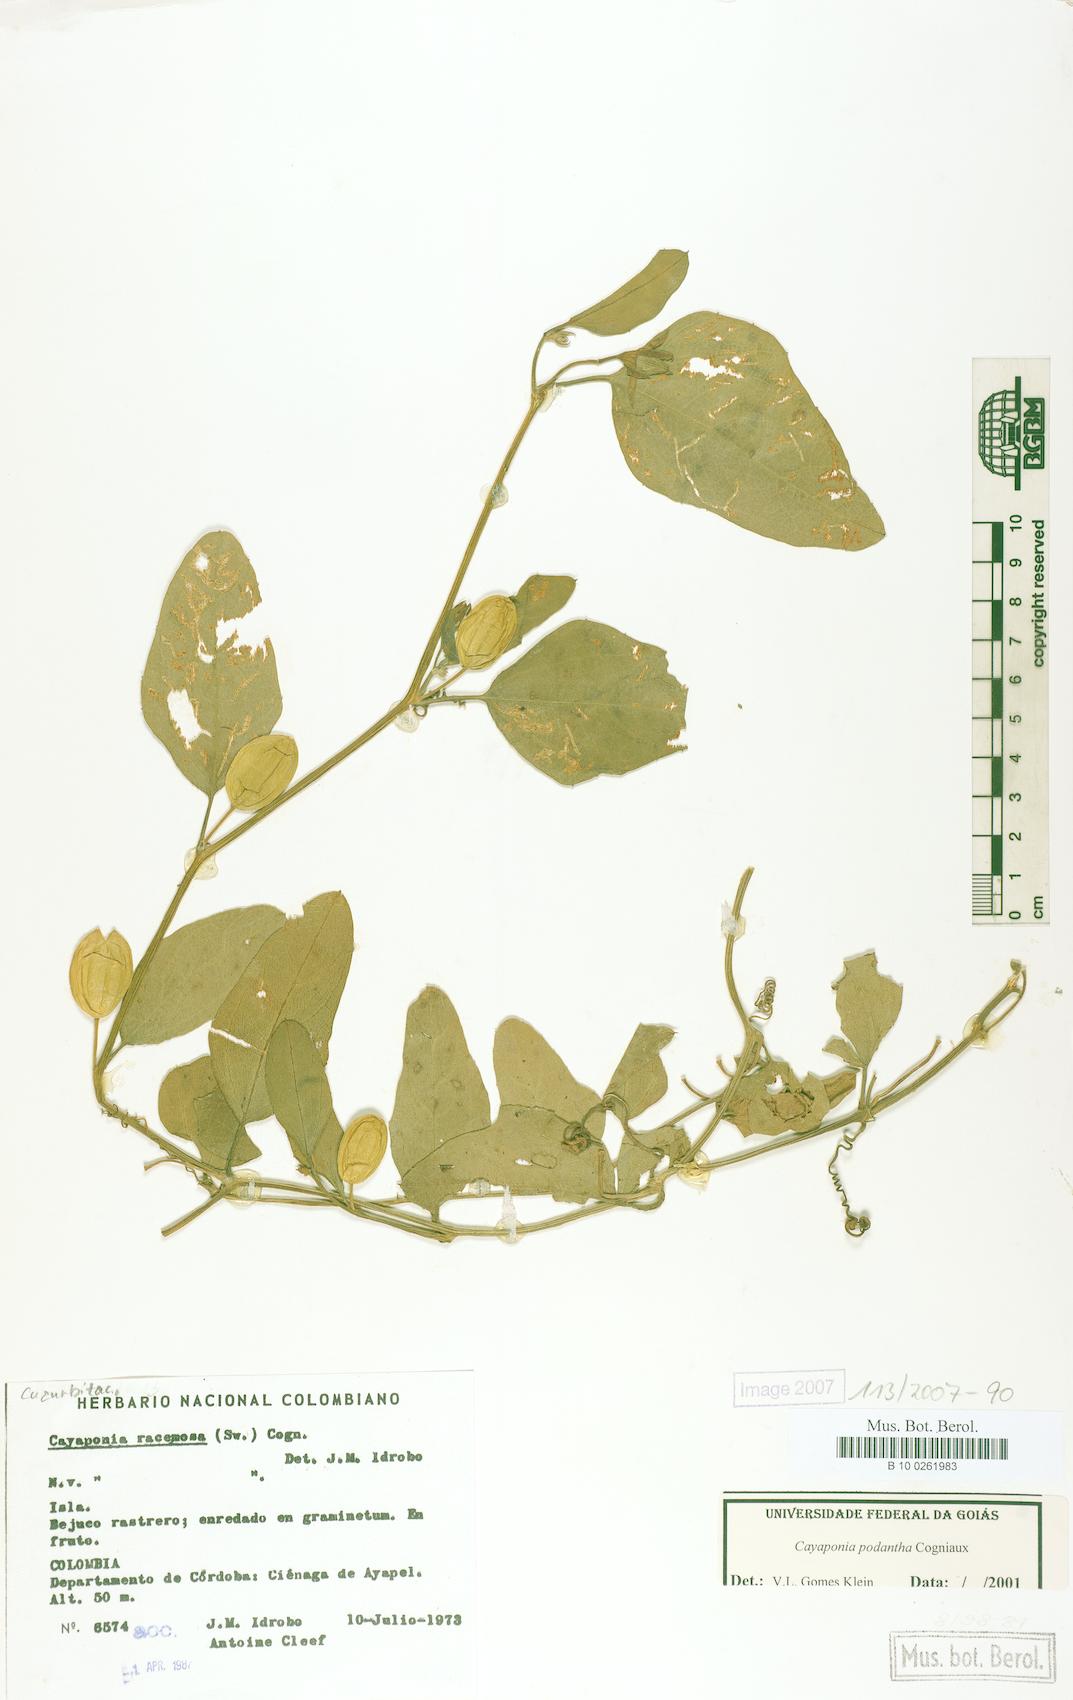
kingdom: Plantae
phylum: Tracheophyta
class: Magnoliopsida
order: Cucurbitales
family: Cucurbitaceae
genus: Cayaponia
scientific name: Cayaponia podantha
